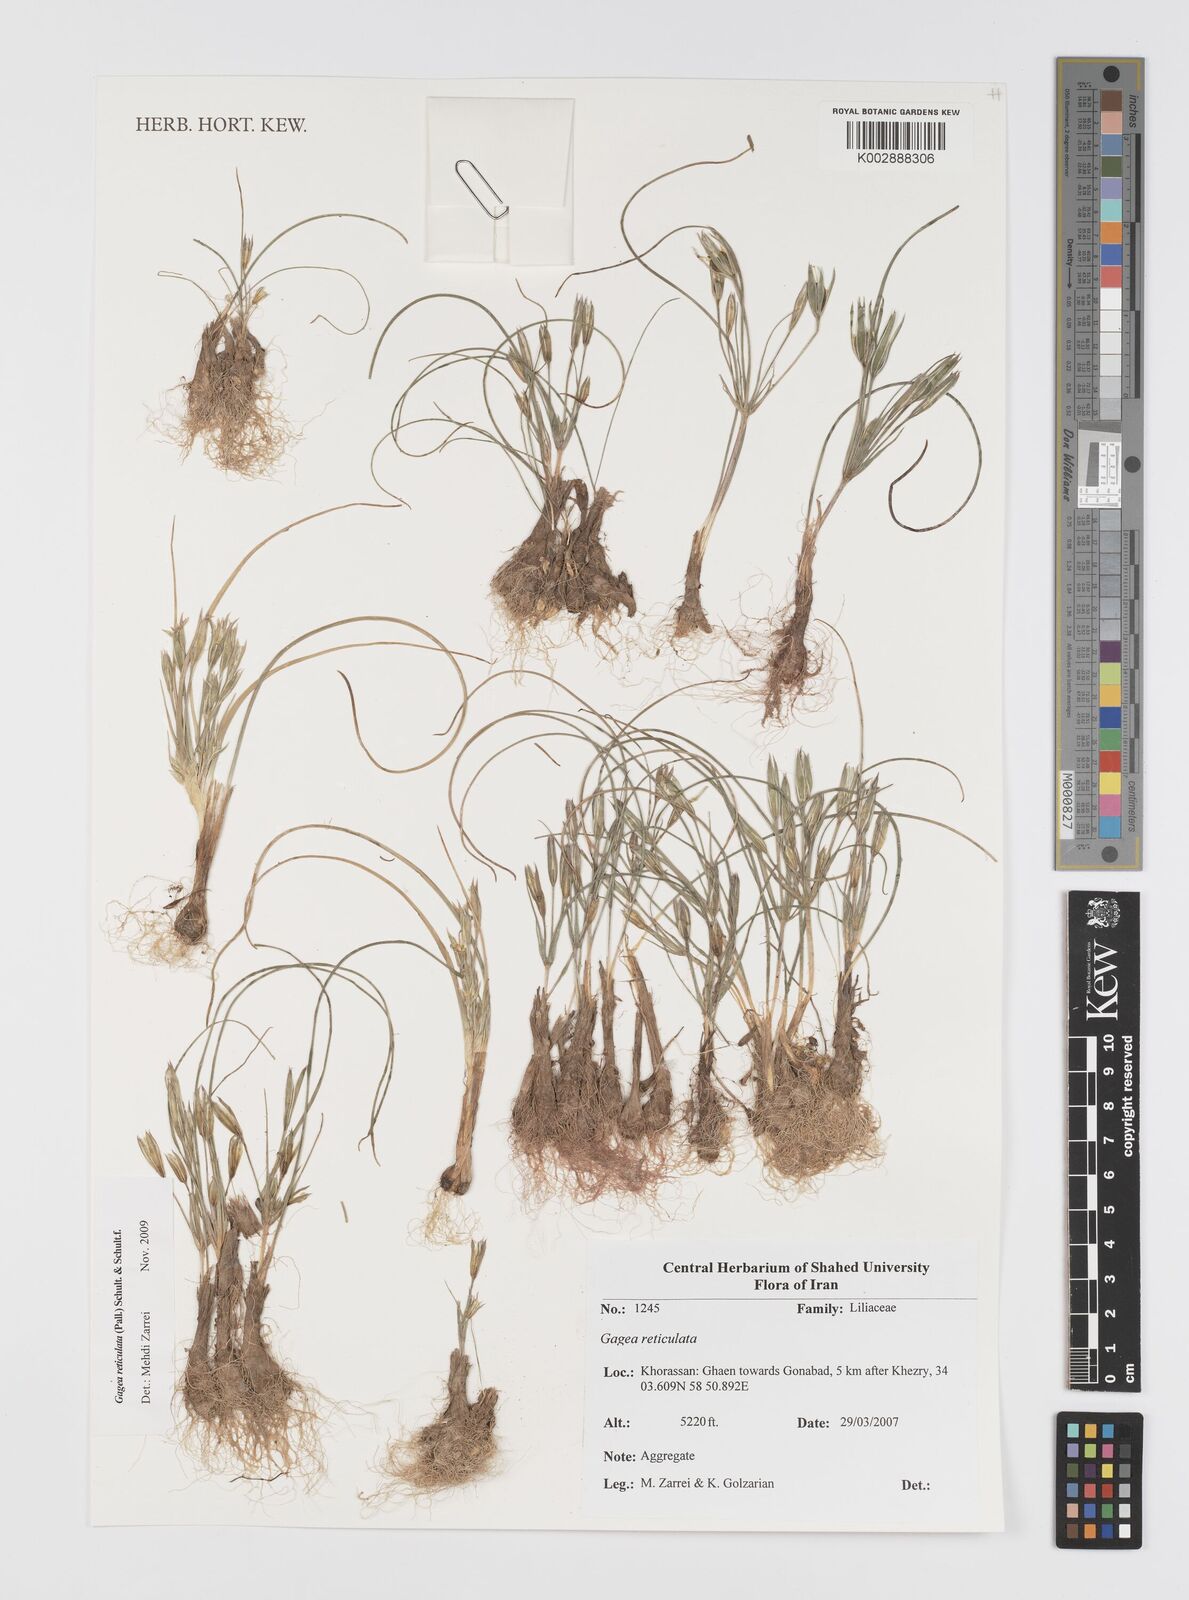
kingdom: Plantae
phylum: Tracheophyta
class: Liliopsida
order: Liliales
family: Liliaceae
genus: Gagea
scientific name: Gagea reticulata
